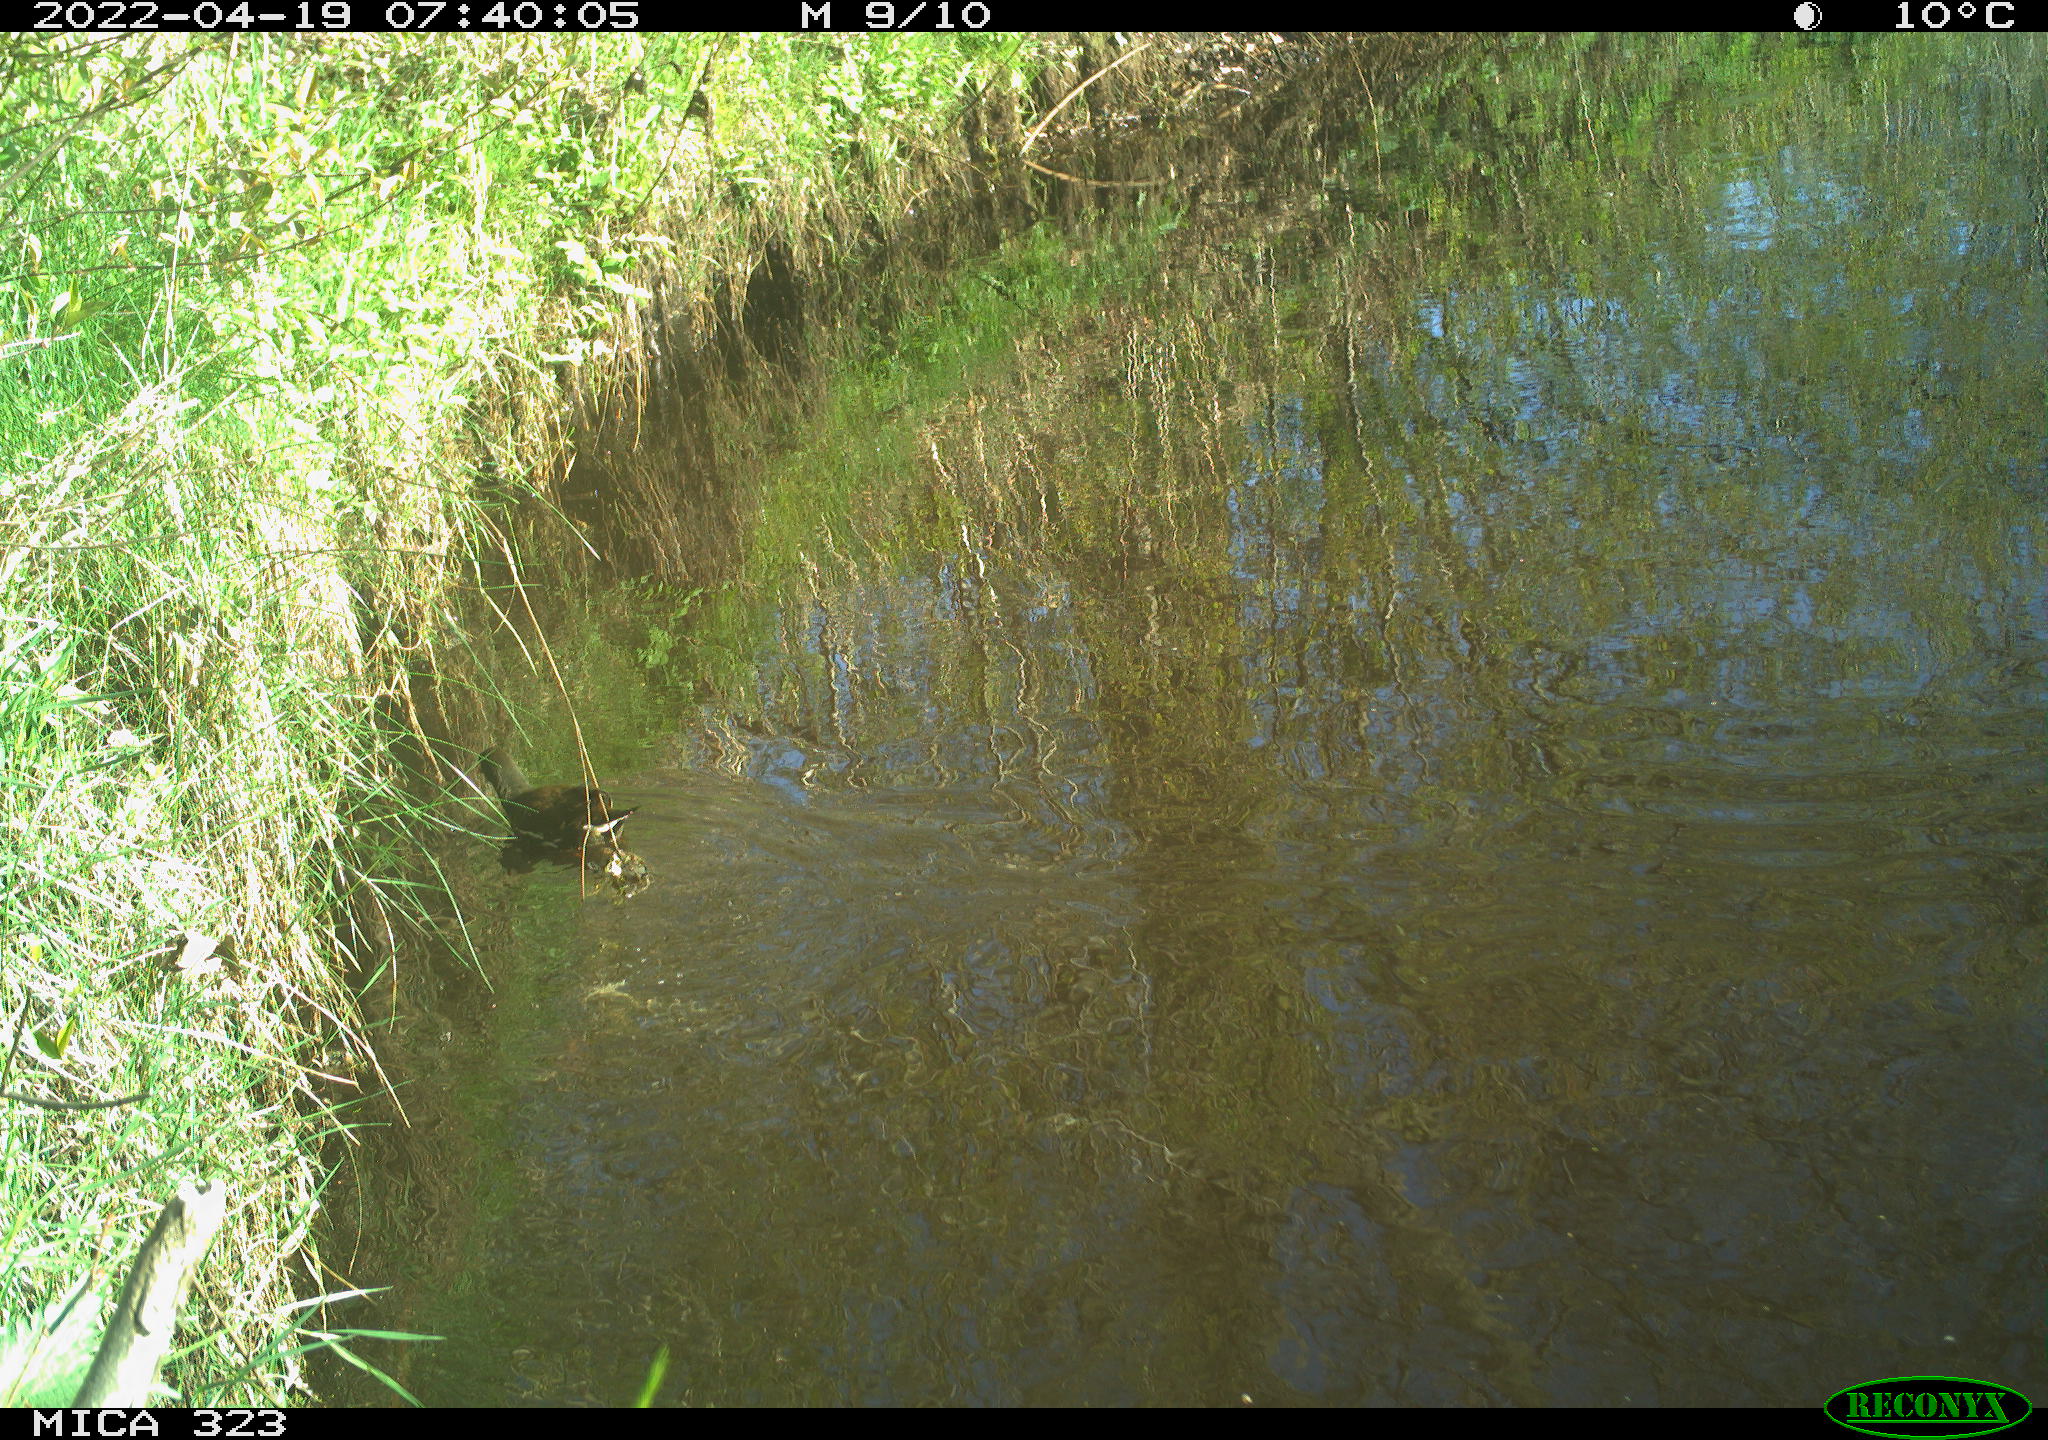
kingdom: Animalia
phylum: Chordata
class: Aves
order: Gruiformes
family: Rallidae
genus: Gallinula
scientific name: Gallinula chloropus
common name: Common moorhen
